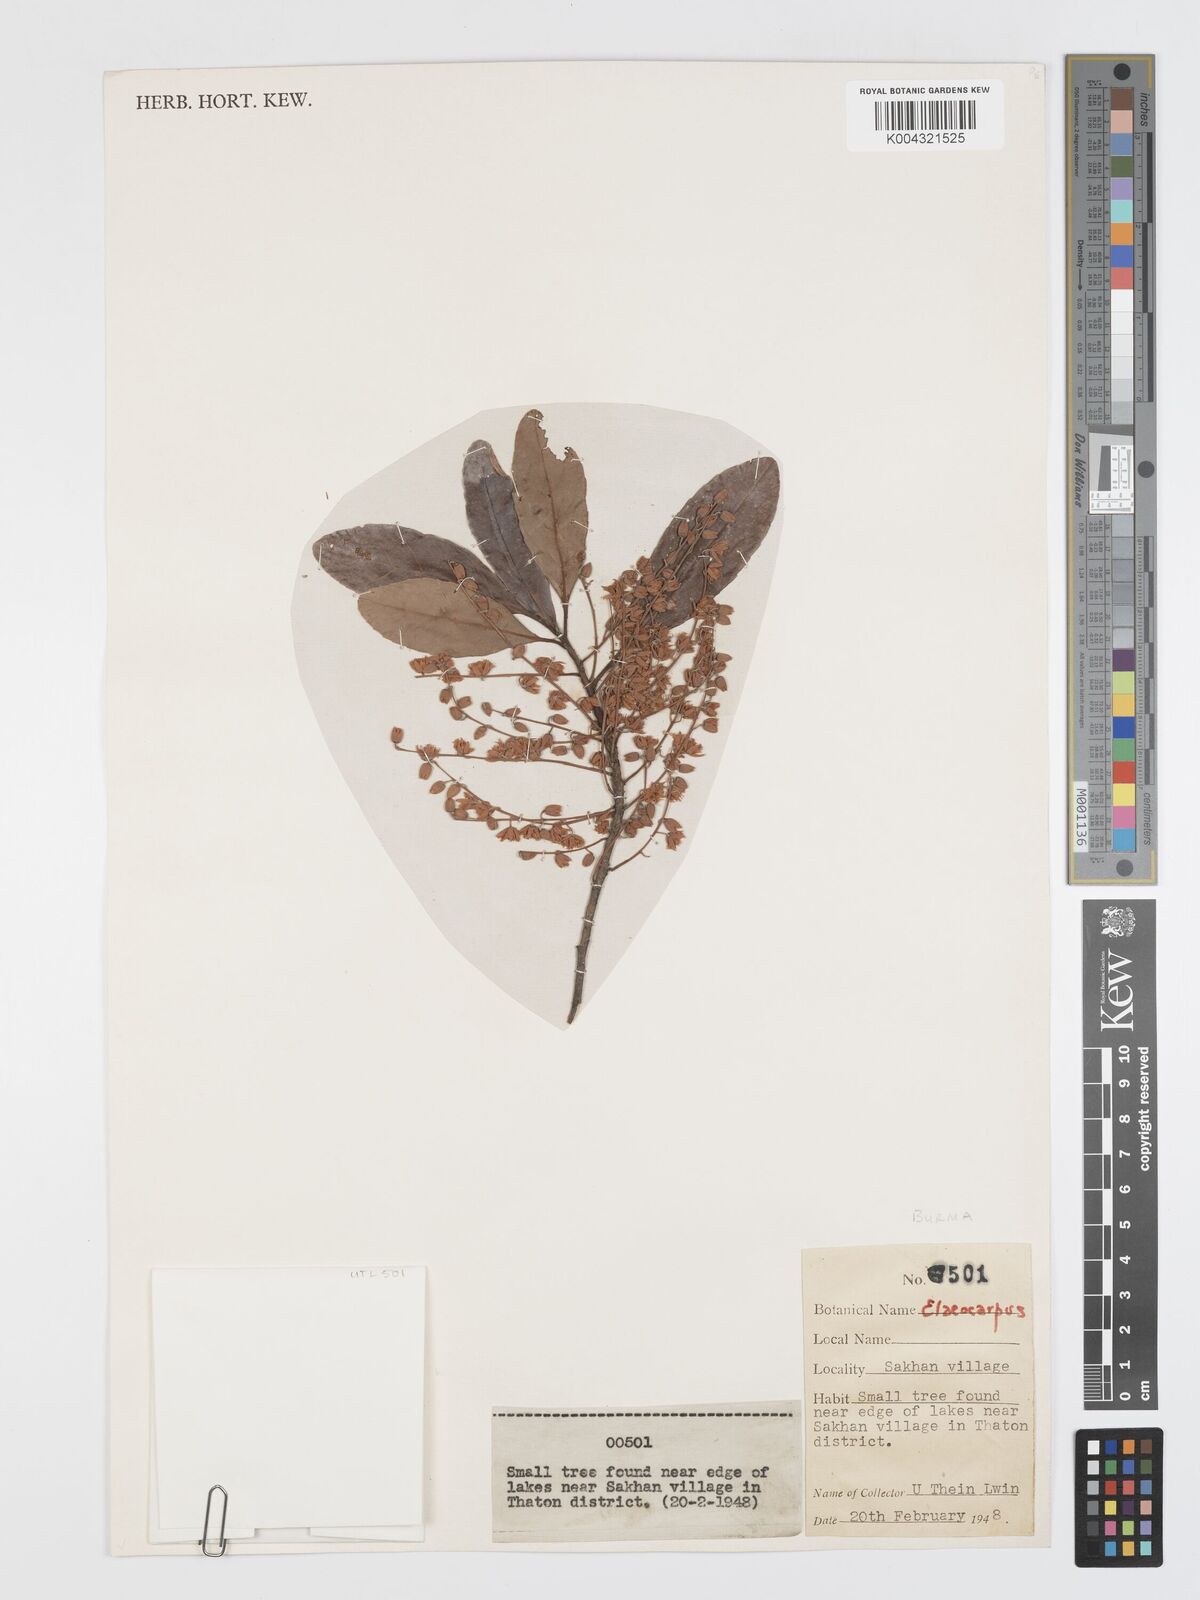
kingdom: Plantae
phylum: Tracheophyta
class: Magnoliopsida
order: Oxalidales
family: Elaeocarpaceae
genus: Elaeocarpus
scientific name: Elaeocarpus hygrophilus
